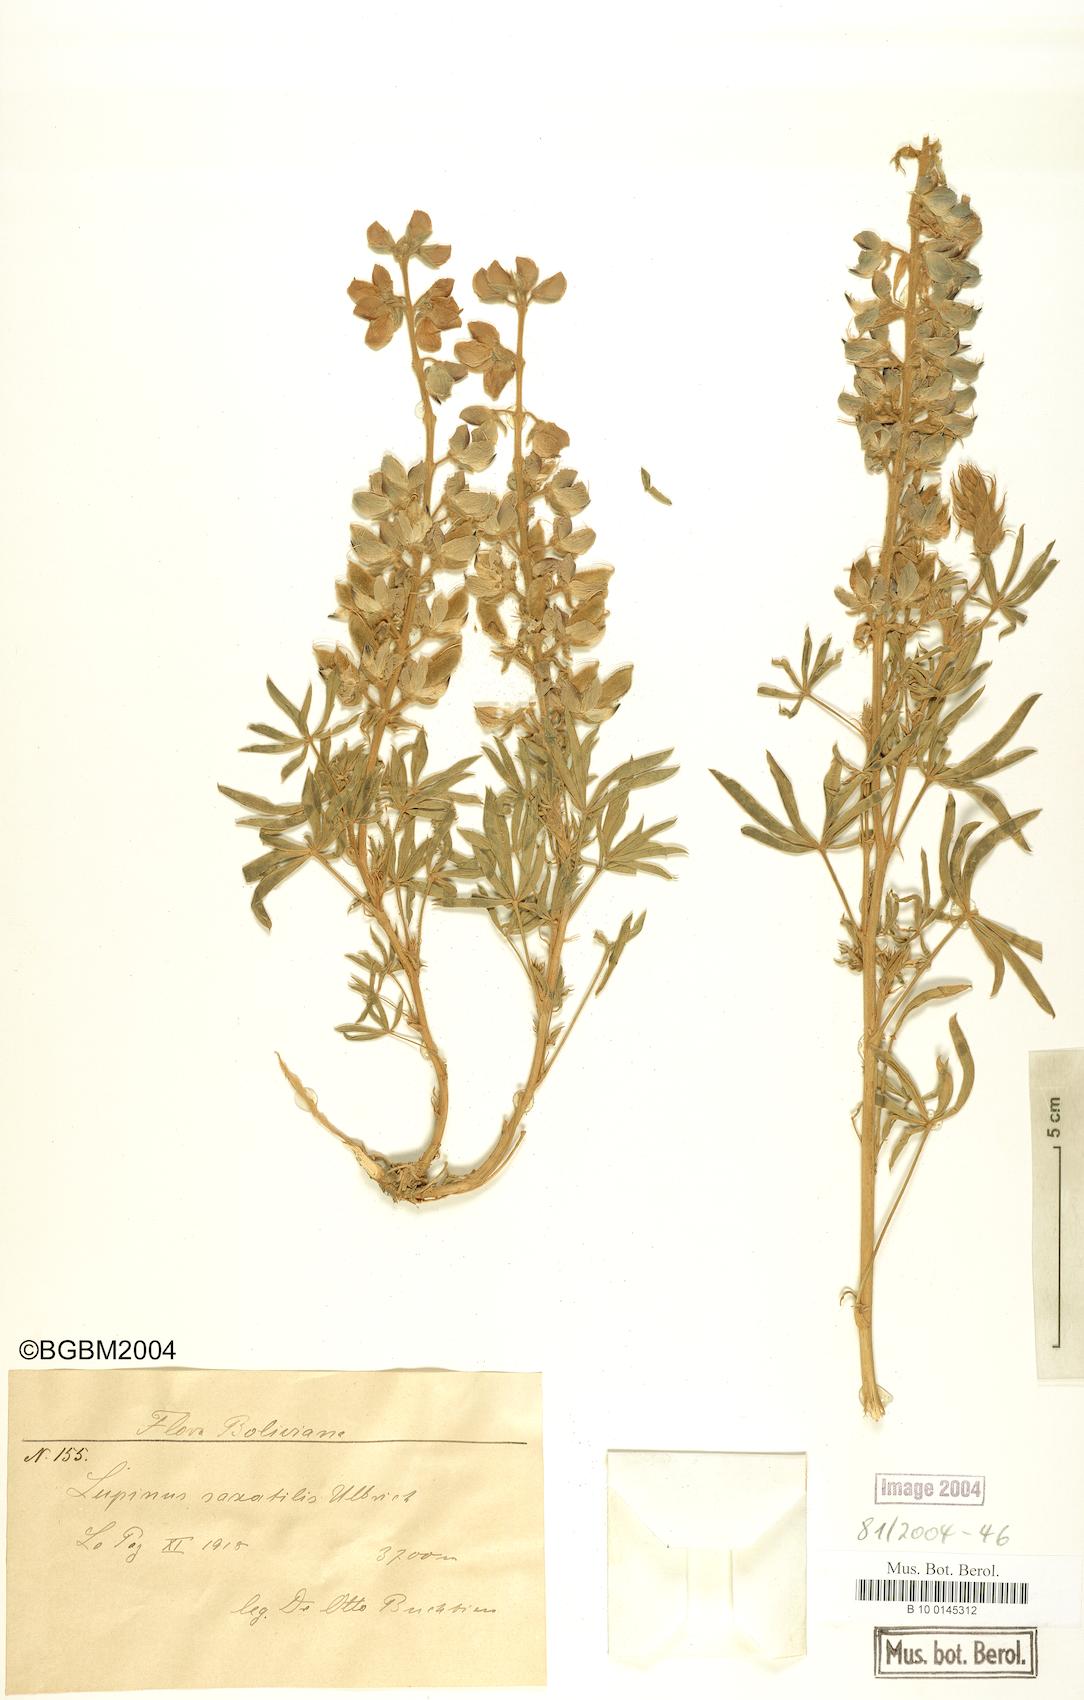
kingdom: Plantae
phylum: Tracheophyta
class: Magnoliopsida
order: Fabales
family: Fabaceae
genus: Lupinus
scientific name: Lupinus saxatilis
